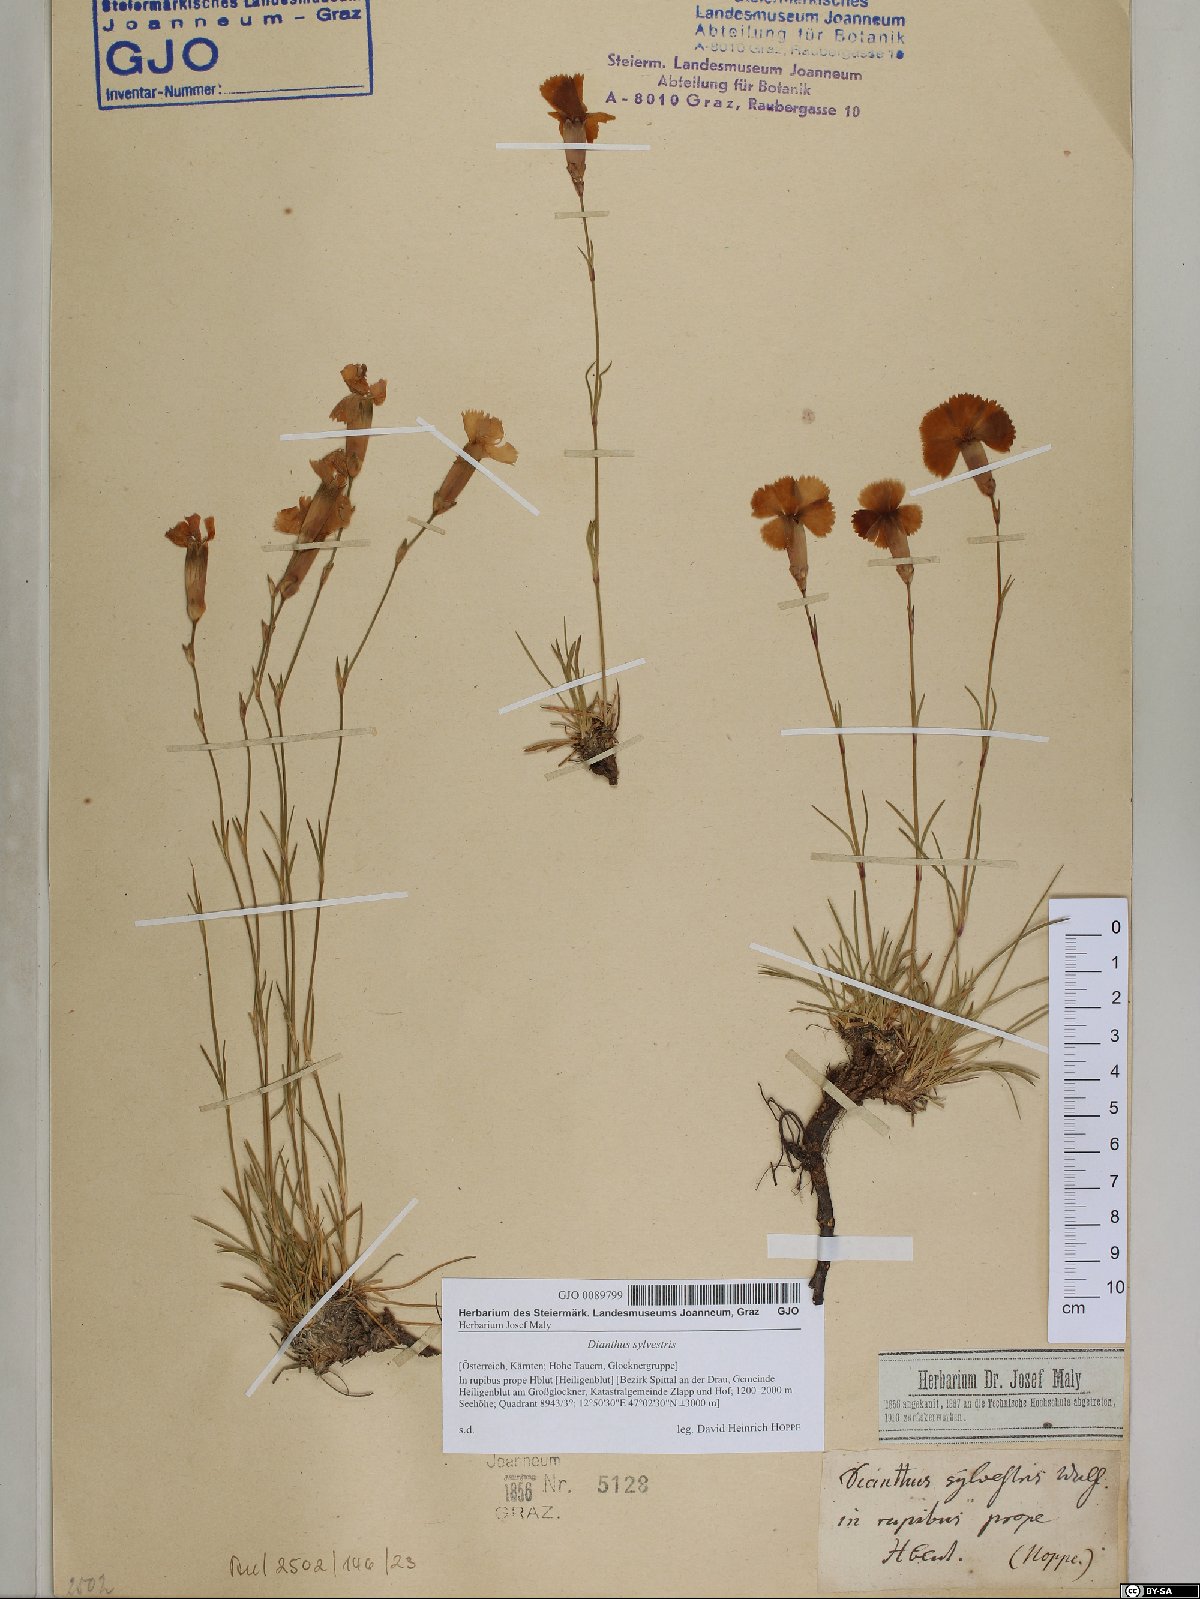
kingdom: Plantae
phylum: Tracheophyta
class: Magnoliopsida
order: Caryophyllales
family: Caryophyllaceae
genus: Dianthus
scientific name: Dianthus sylvestris
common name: Wood pink
